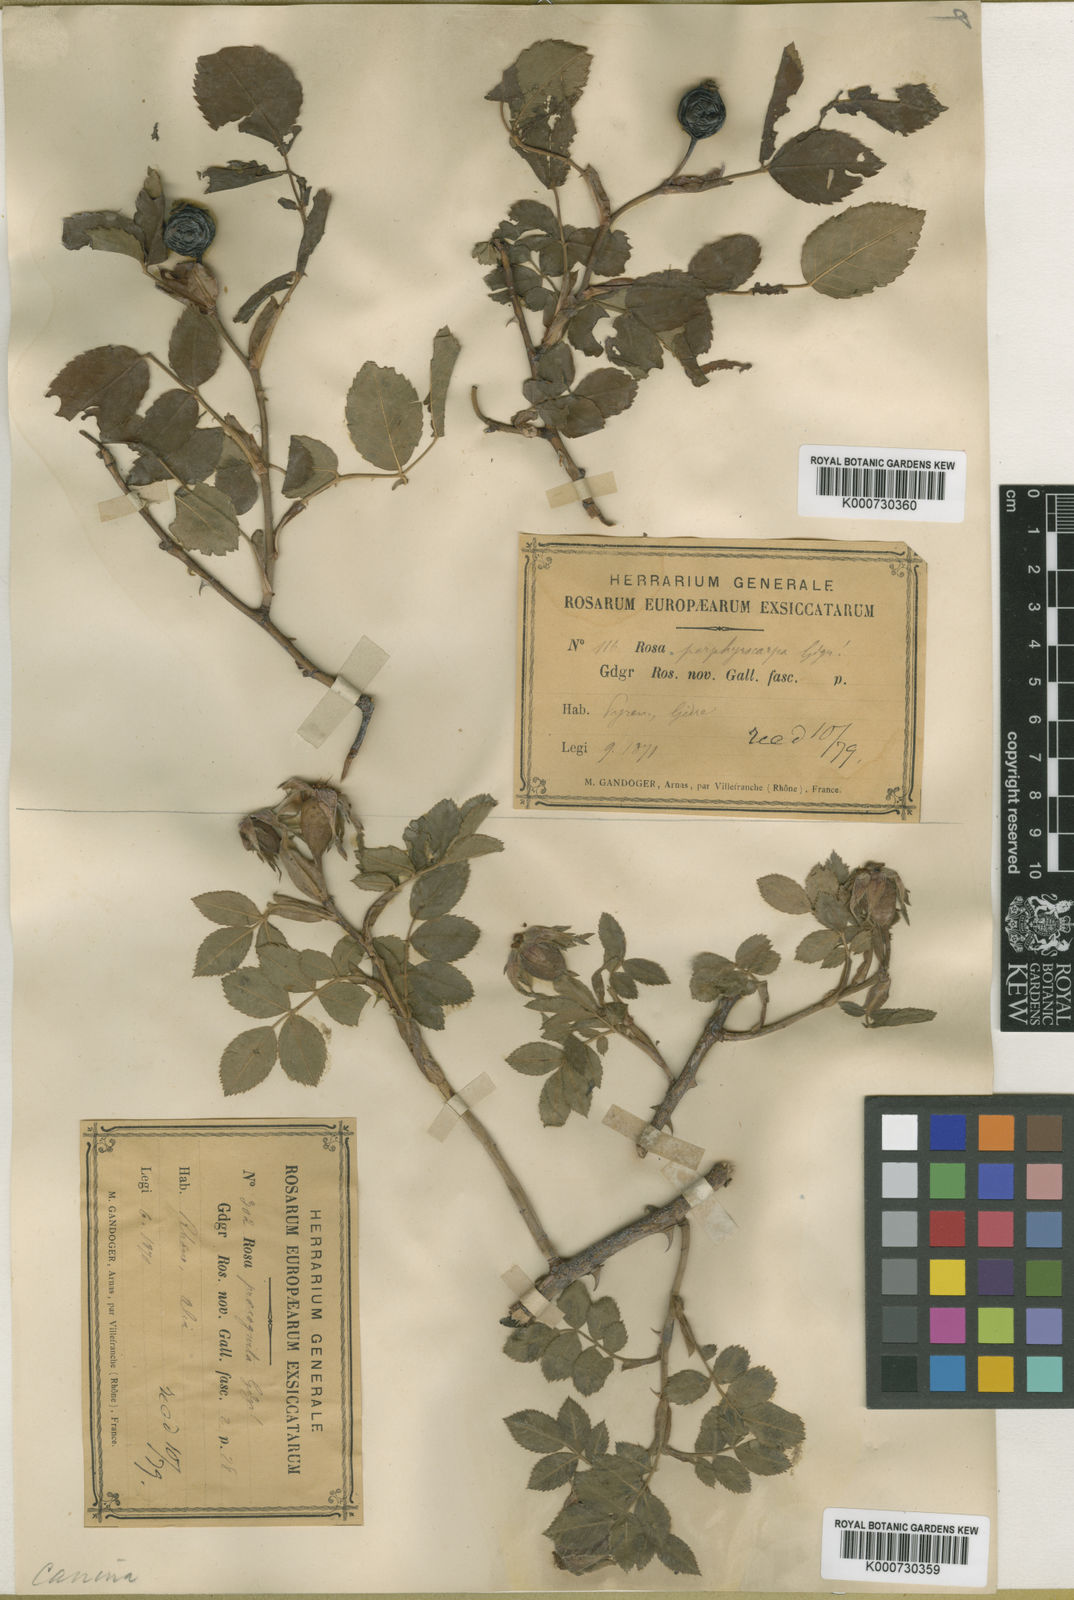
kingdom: Plantae
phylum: Tracheophyta
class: Magnoliopsida
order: Rosales
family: Rosaceae
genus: Rosa
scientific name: Rosa canina
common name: Dog rose
